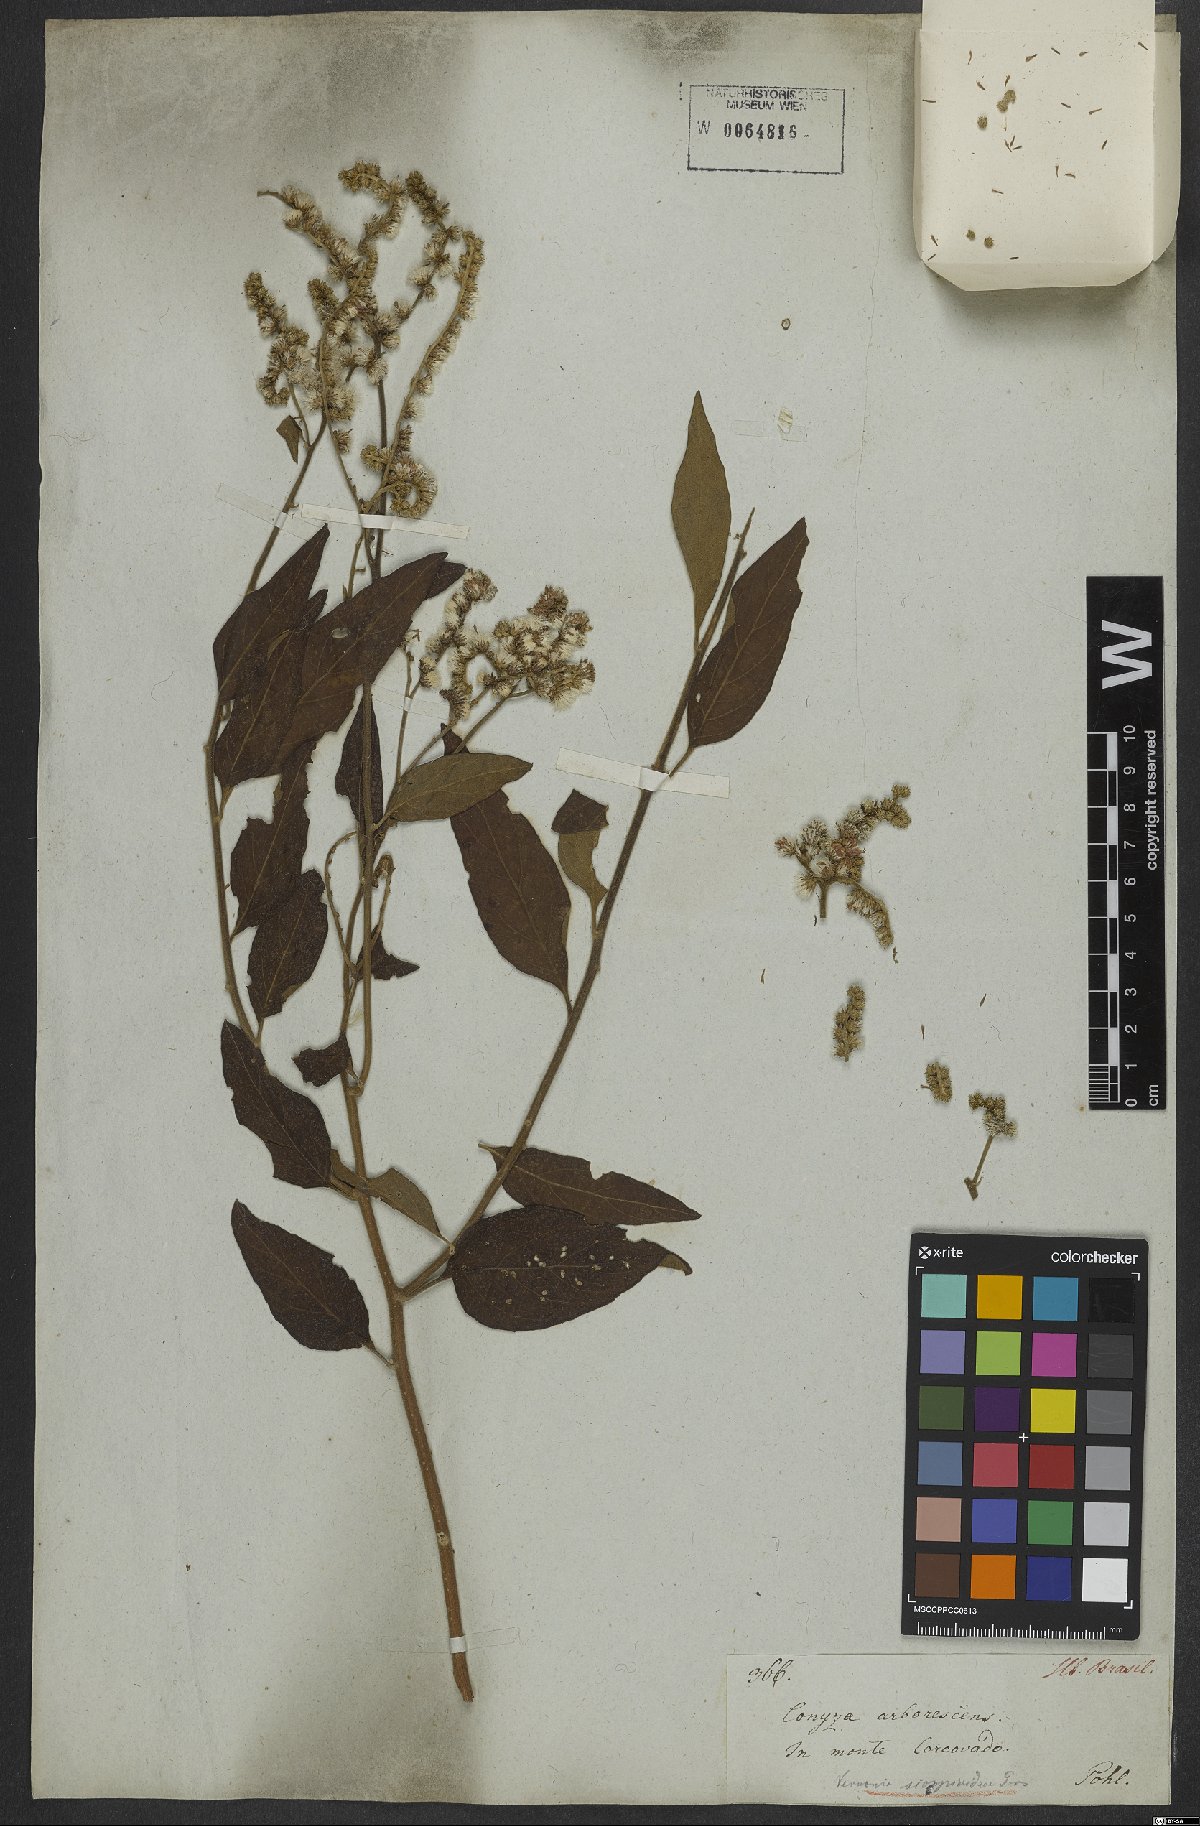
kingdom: Plantae
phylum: Tracheophyta
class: Magnoliopsida
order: Asterales
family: Asteraceae
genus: Cyrtocymura
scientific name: Cyrtocymura scorpioides
